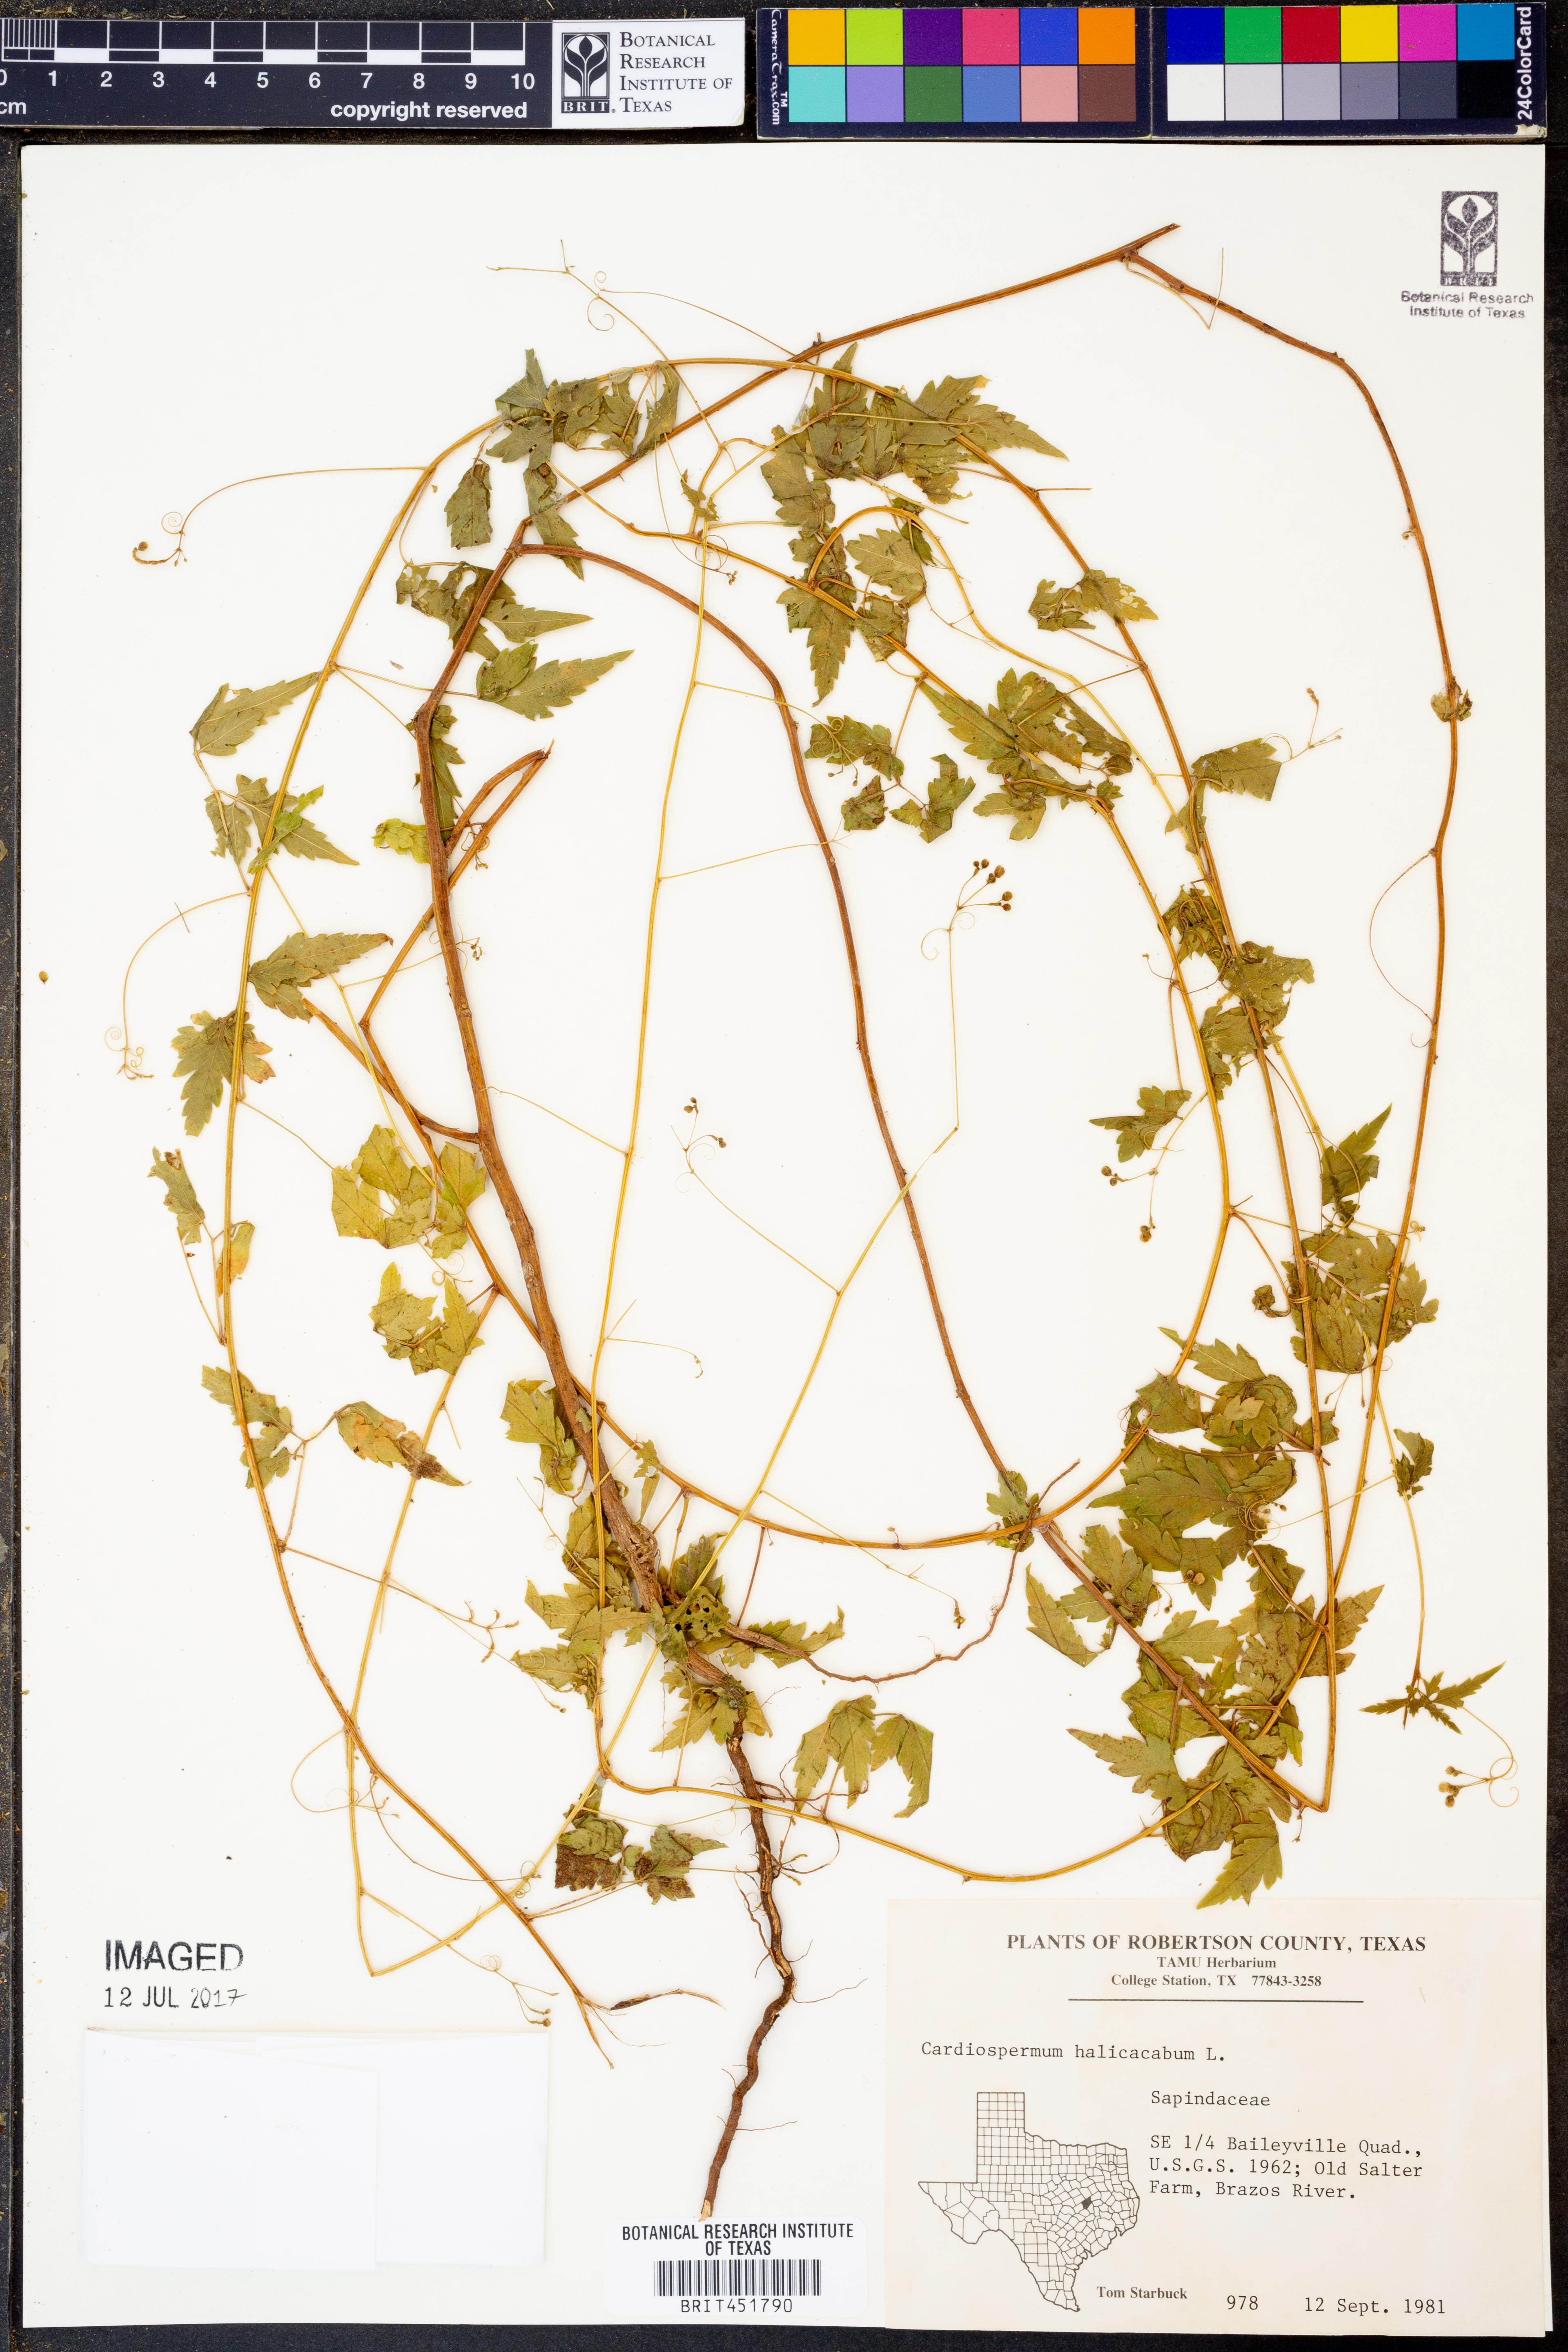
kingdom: Plantae
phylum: Tracheophyta
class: Magnoliopsida
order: Sapindales
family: Sapindaceae
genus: Cardiospermum
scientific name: Cardiospermum halicacabum
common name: Balloon vine
